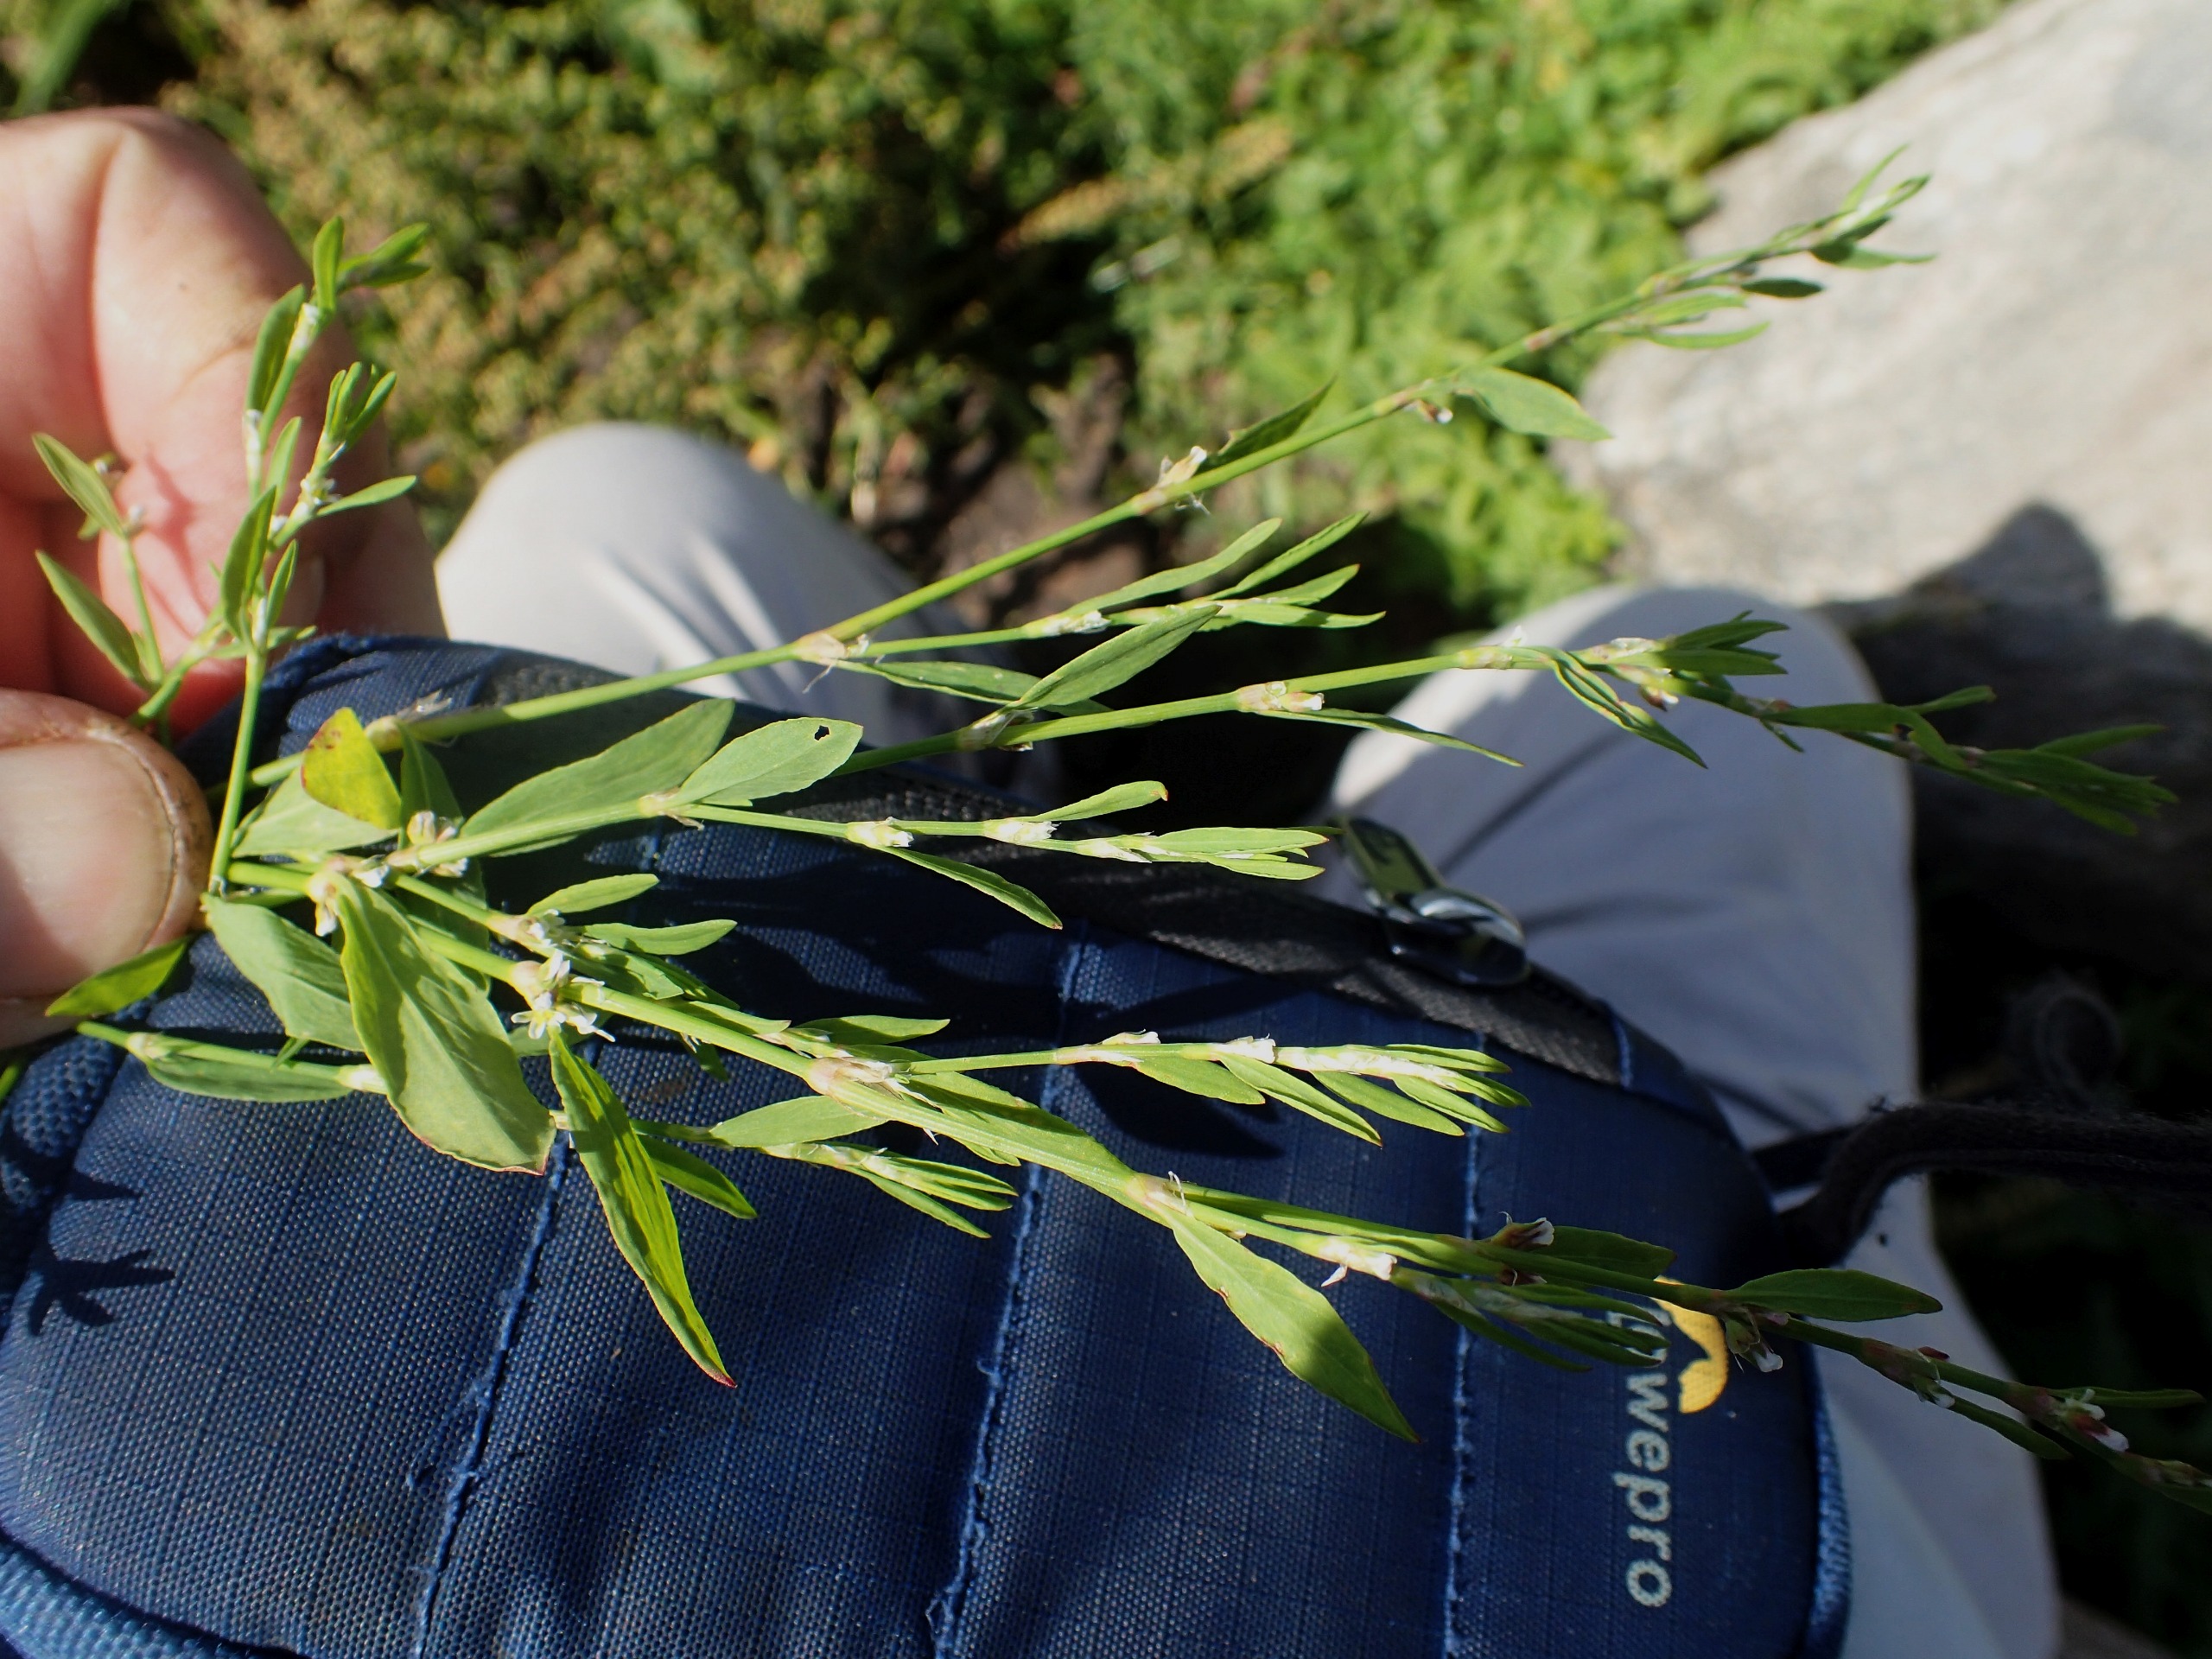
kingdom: Plantae
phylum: Tracheophyta
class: Magnoliopsida
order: Caryophyllales
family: Polygonaceae
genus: Polygonum
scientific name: Polygonum aviculare
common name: Smalbladet vej-pileurt
